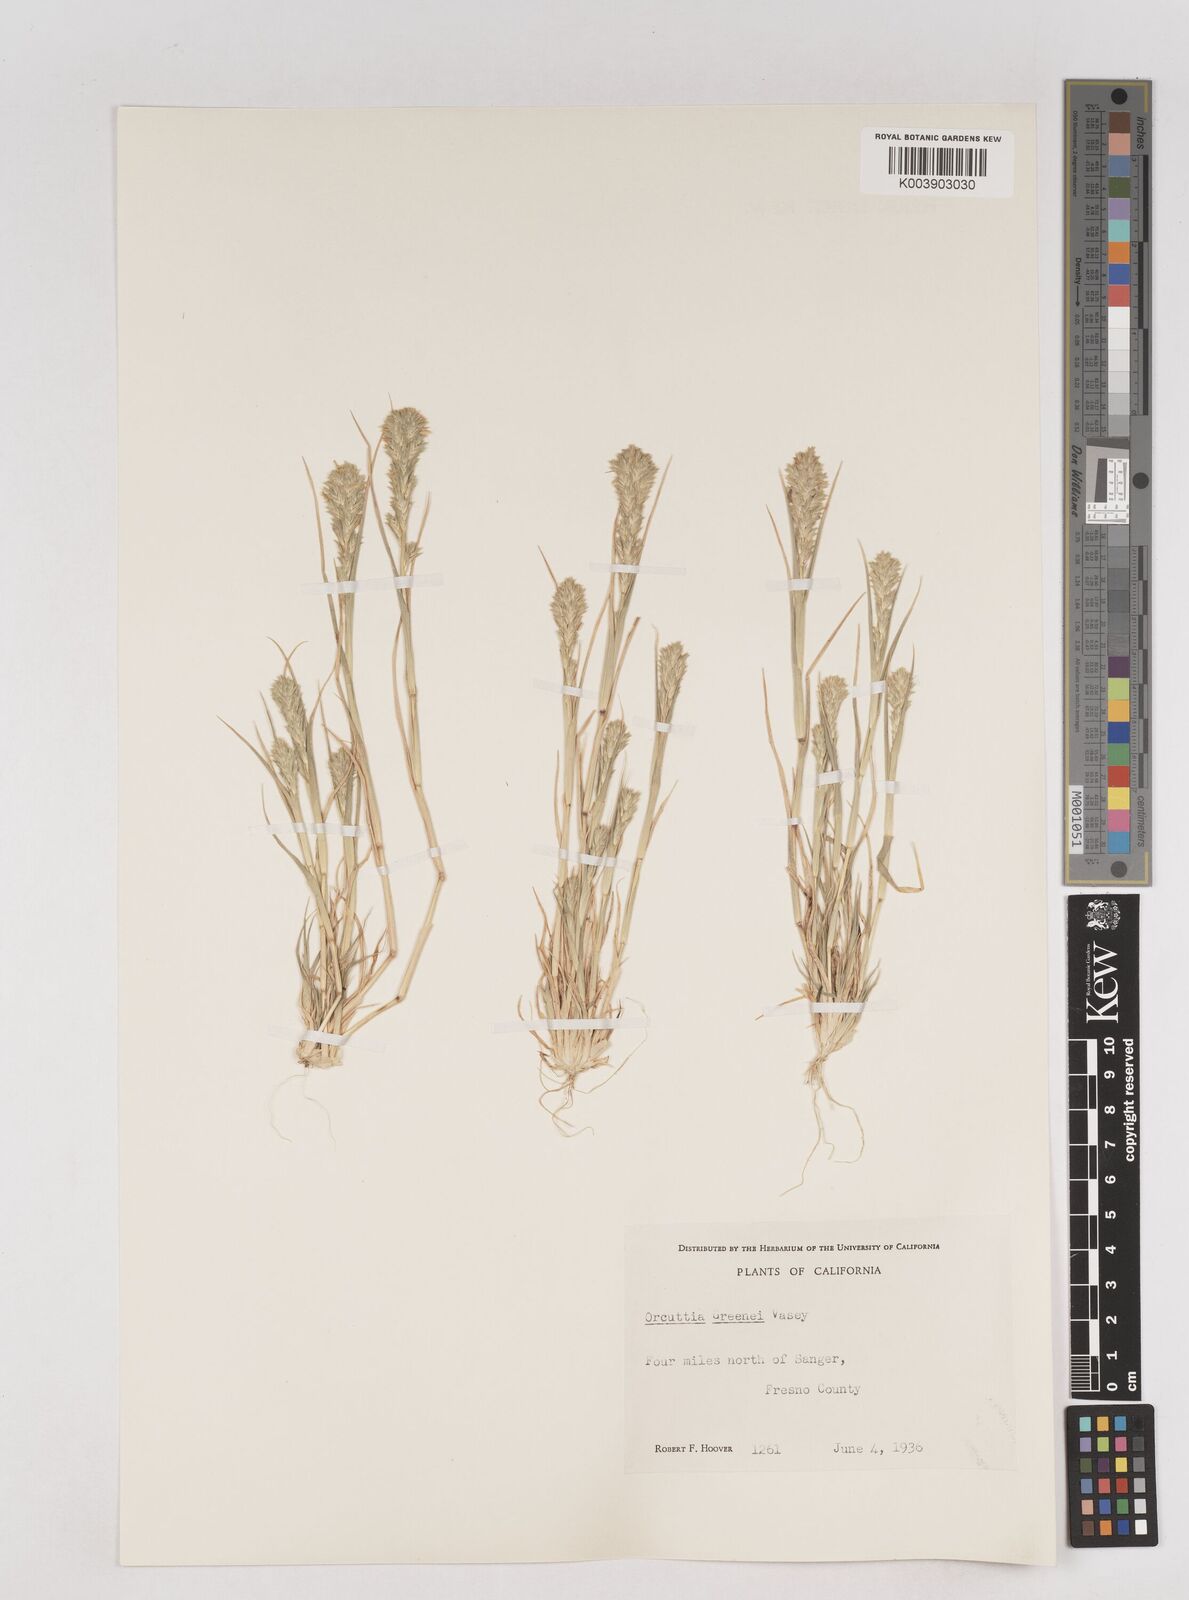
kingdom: Plantae
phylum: Tracheophyta
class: Liliopsida
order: Poales
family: Poaceae
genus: Tuctoria
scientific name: Tuctoria greenei
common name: Awnless spiral grass
